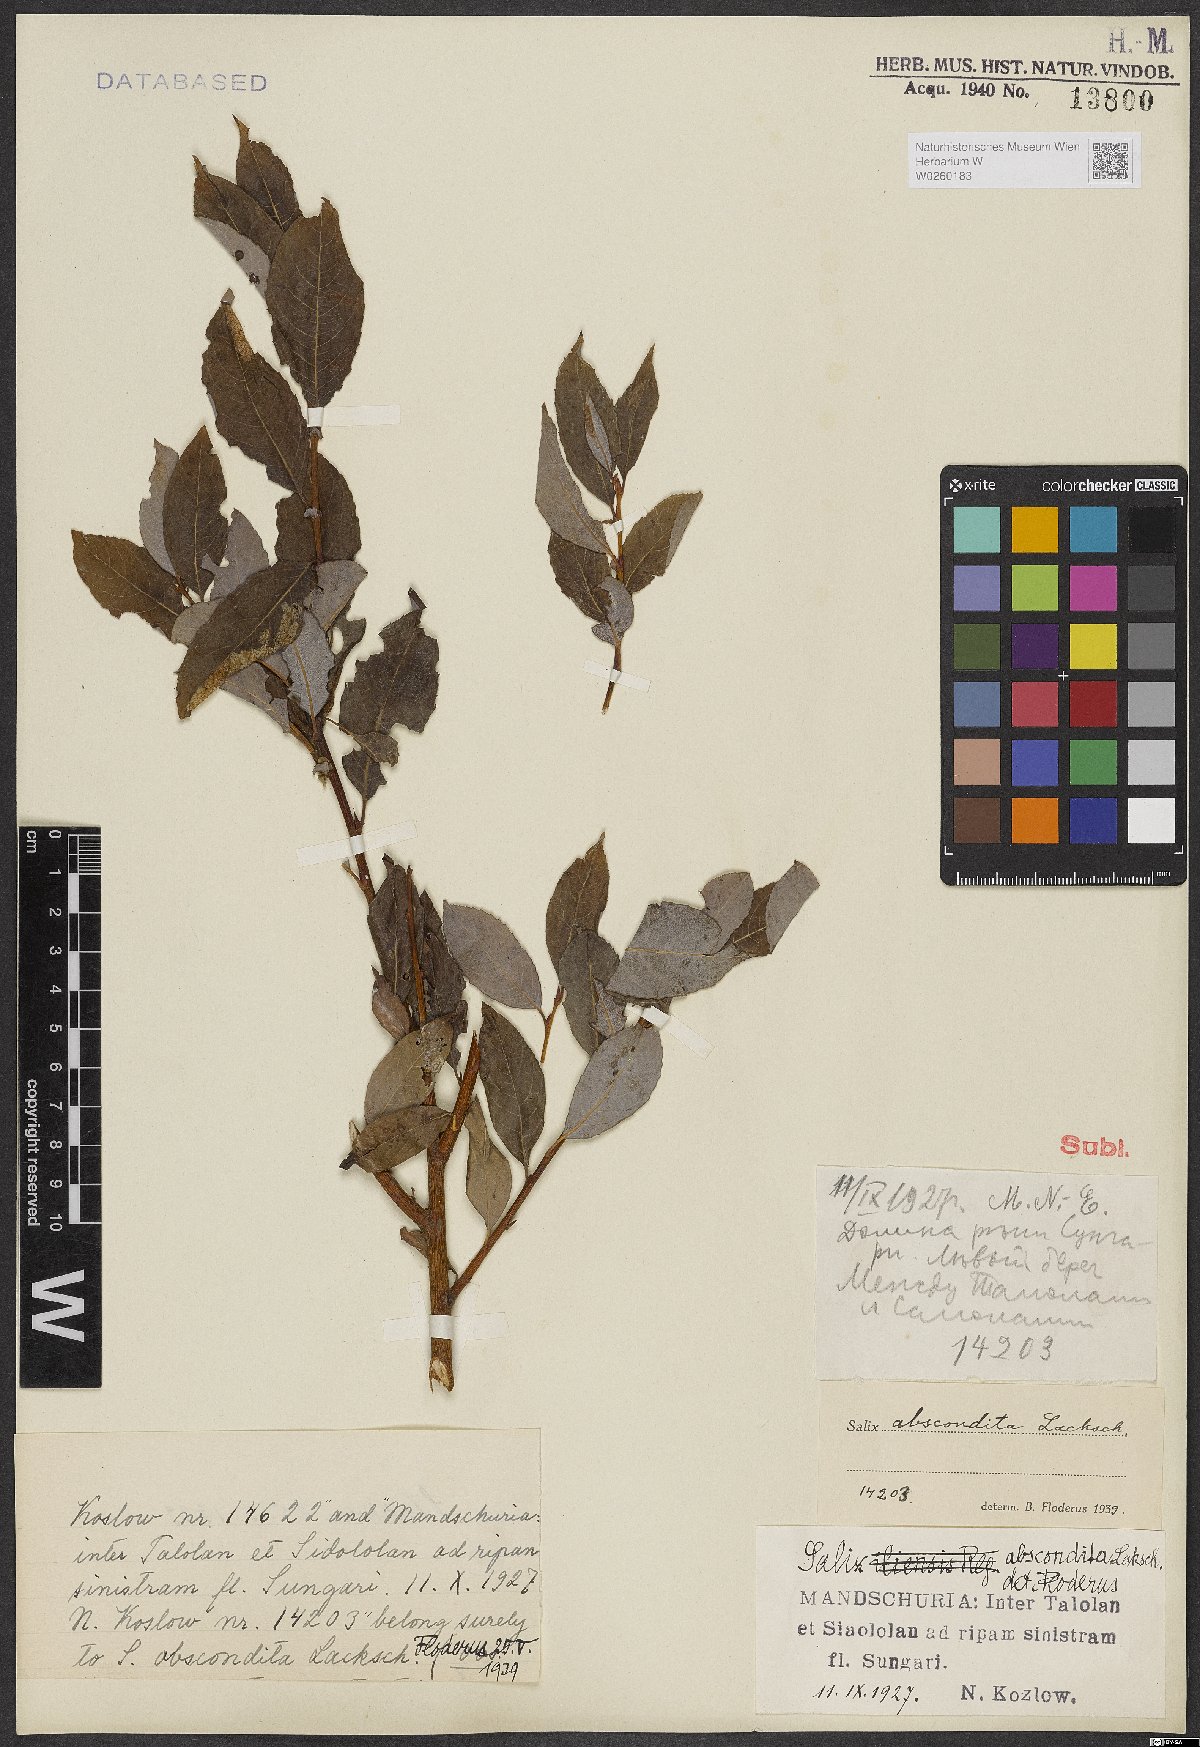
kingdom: Plantae
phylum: Tracheophyta
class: Magnoliopsida
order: Malpighiales
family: Salicaceae
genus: Salix
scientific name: Salix abscondita
